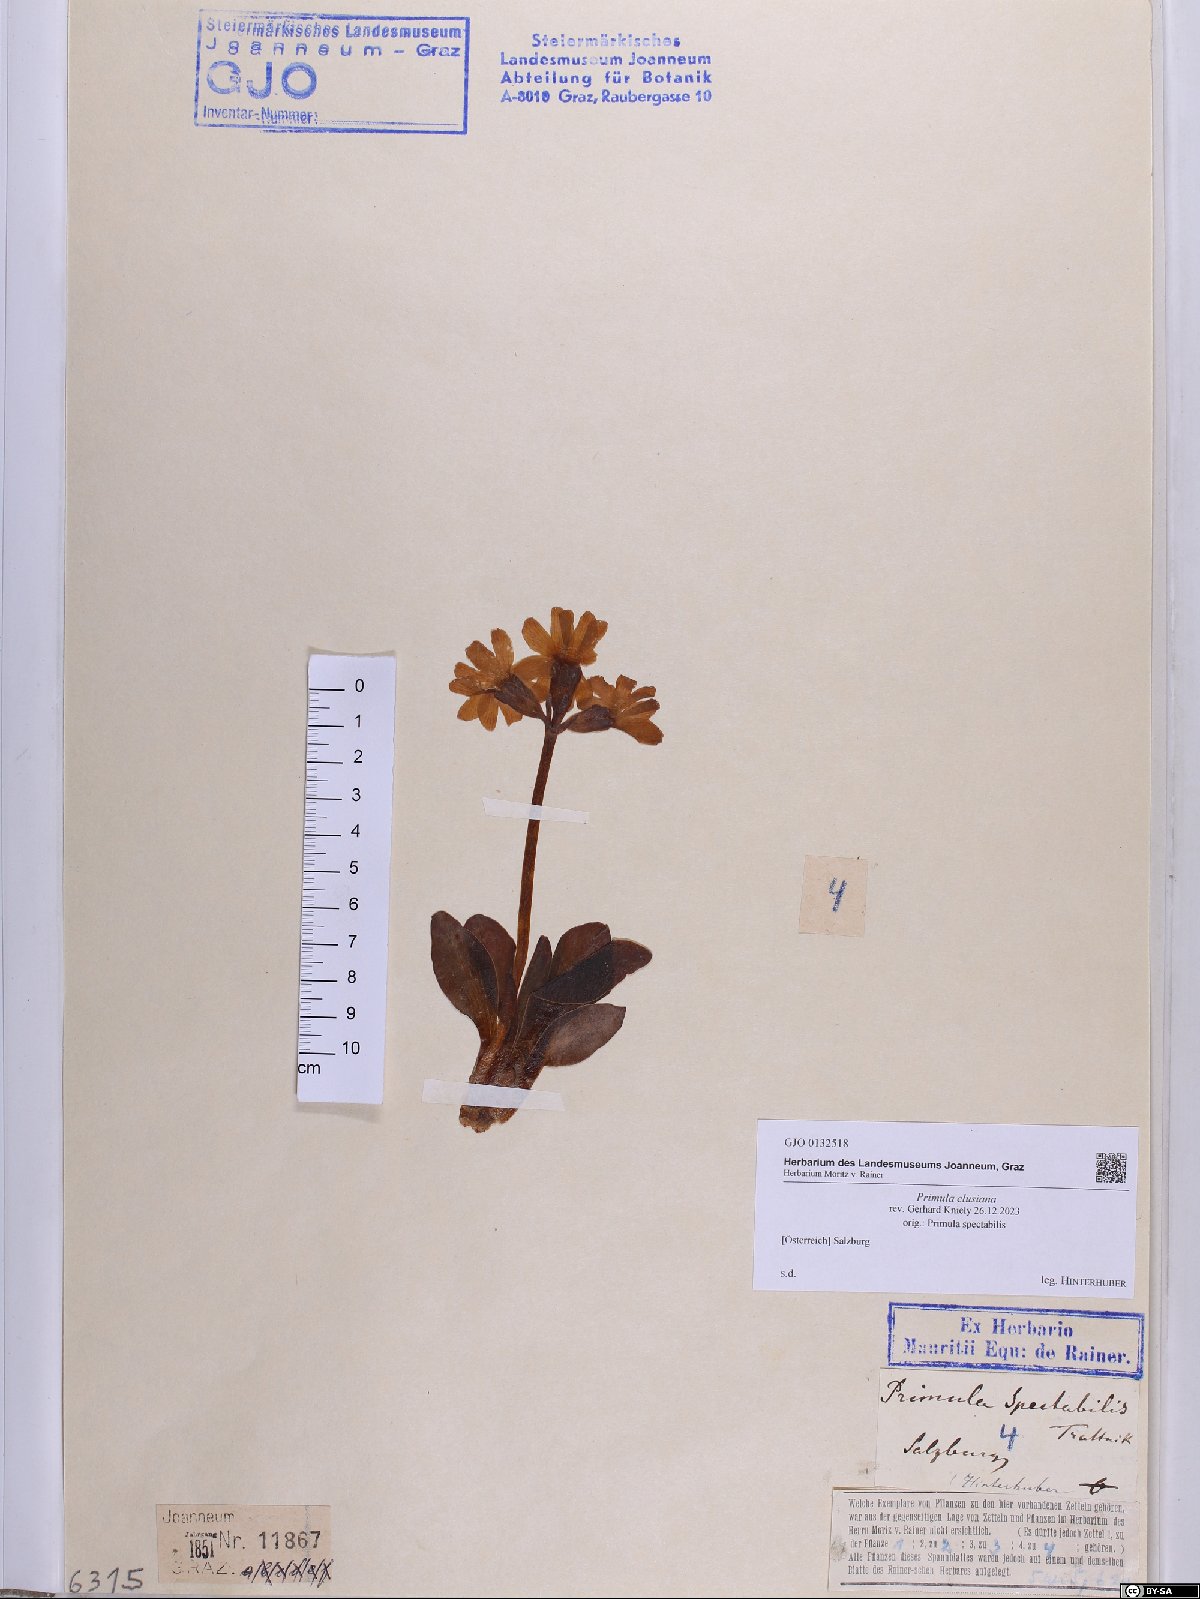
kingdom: Plantae
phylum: Tracheophyta
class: Magnoliopsida
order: Ericales
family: Primulaceae
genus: Primula
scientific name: Primula clusiana
